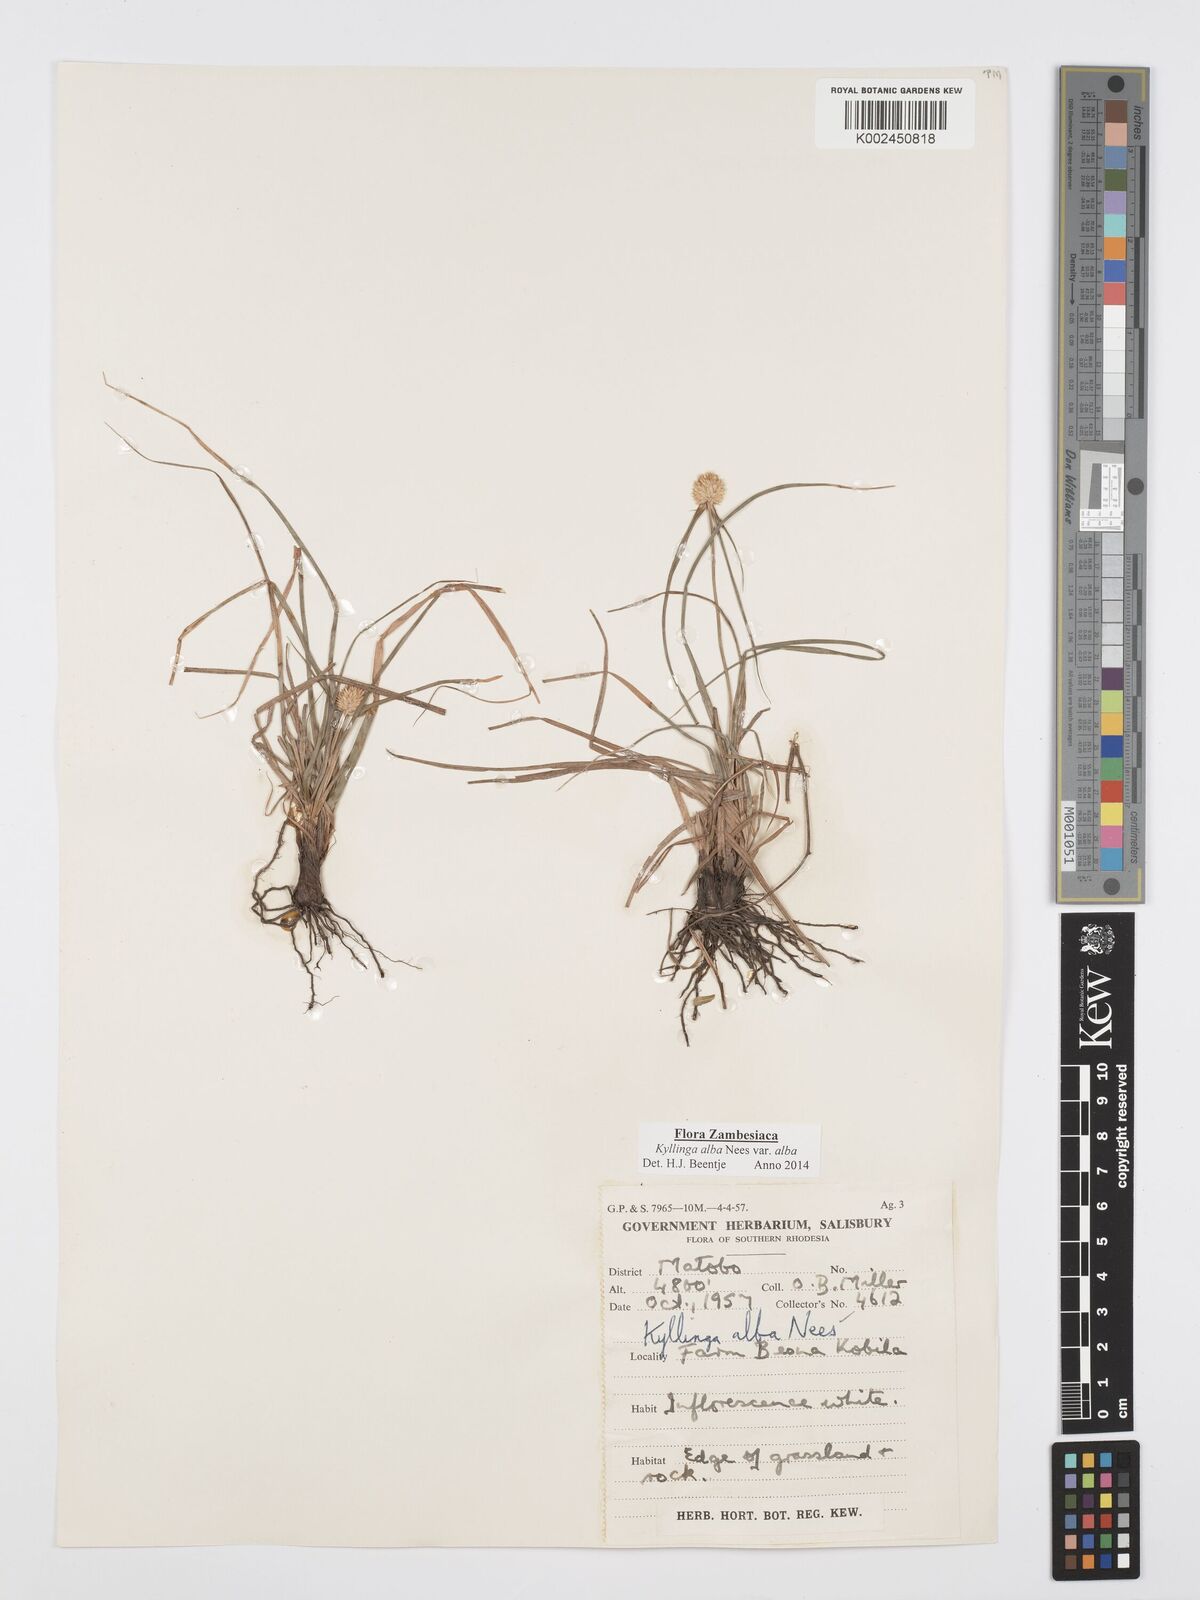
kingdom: Plantae
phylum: Tracheophyta
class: Liliopsida
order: Poales
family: Cyperaceae
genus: Cyperus
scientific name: Cyperus
